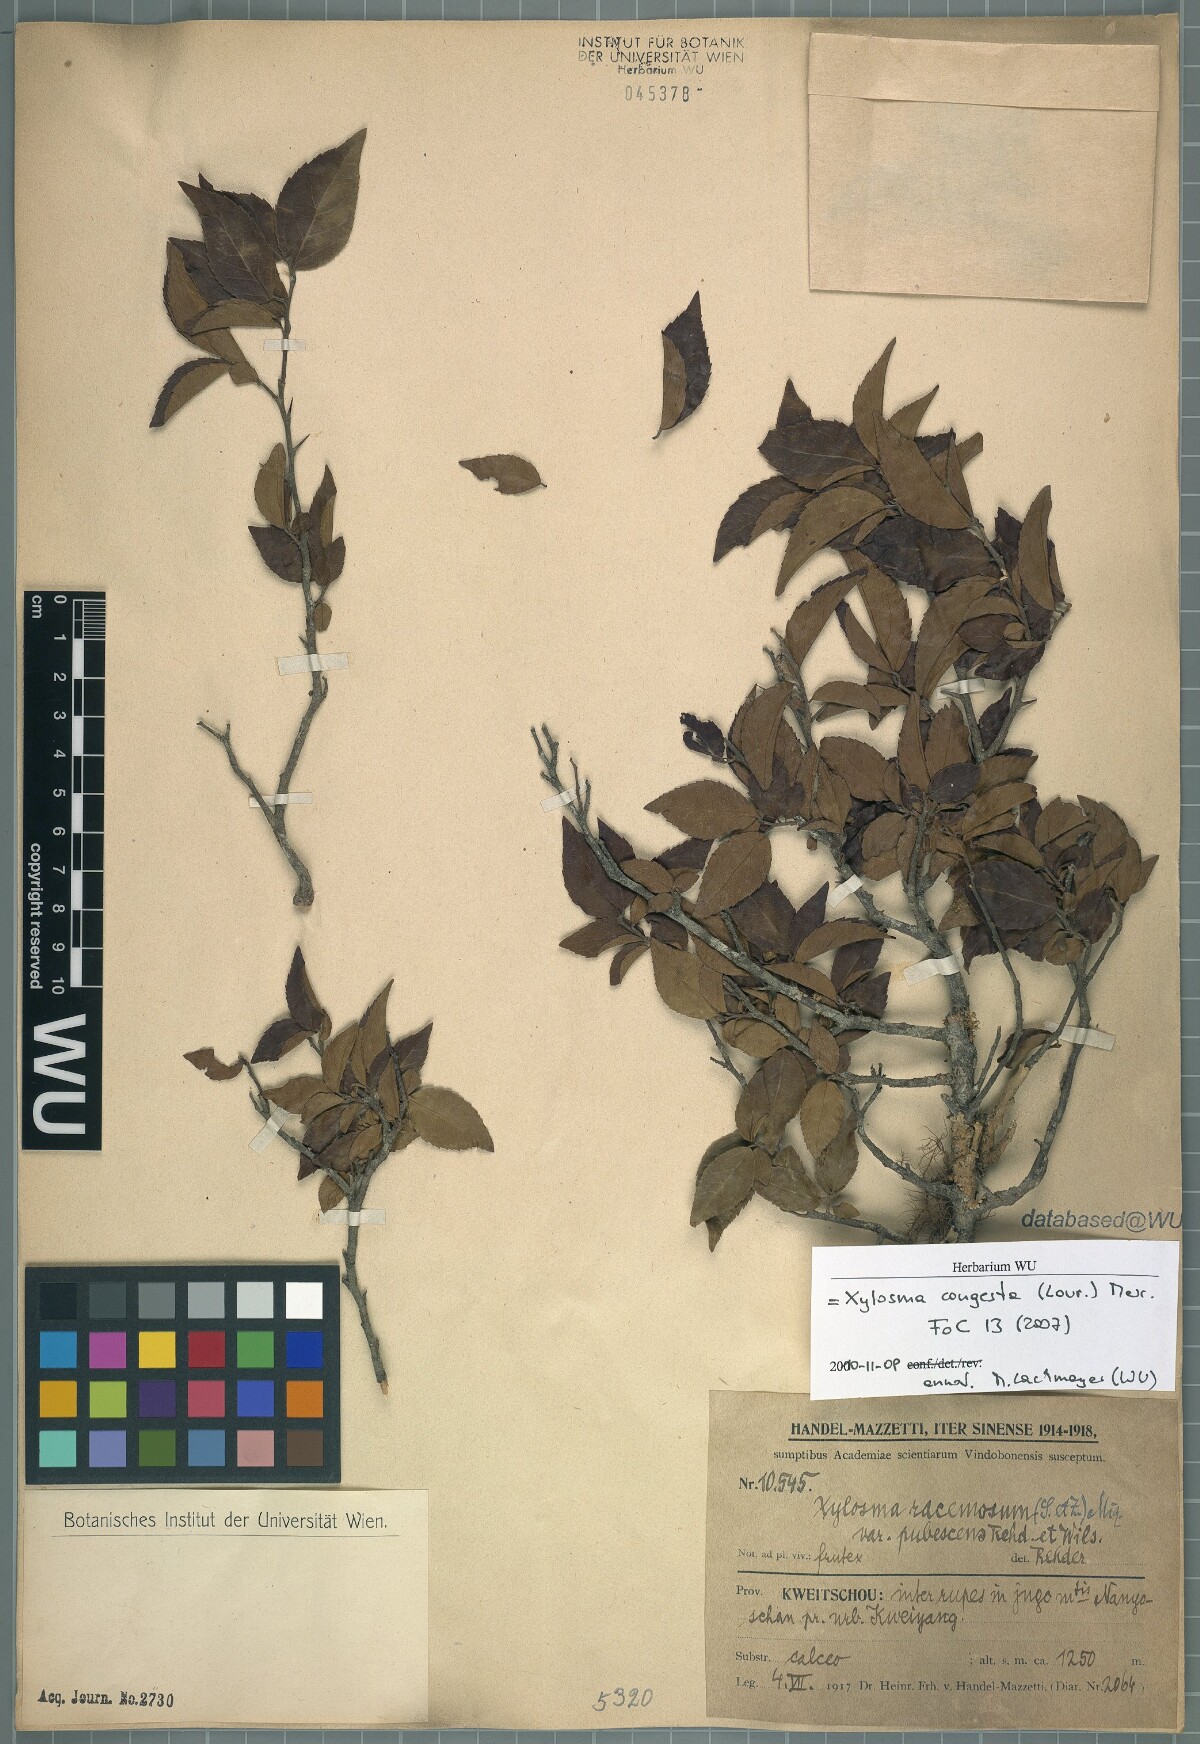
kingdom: Plantae
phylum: Tracheophyta
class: Magnoliopsida
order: Malpighiales
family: Salicaceae
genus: Xylosma
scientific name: Xylosma racemosum
